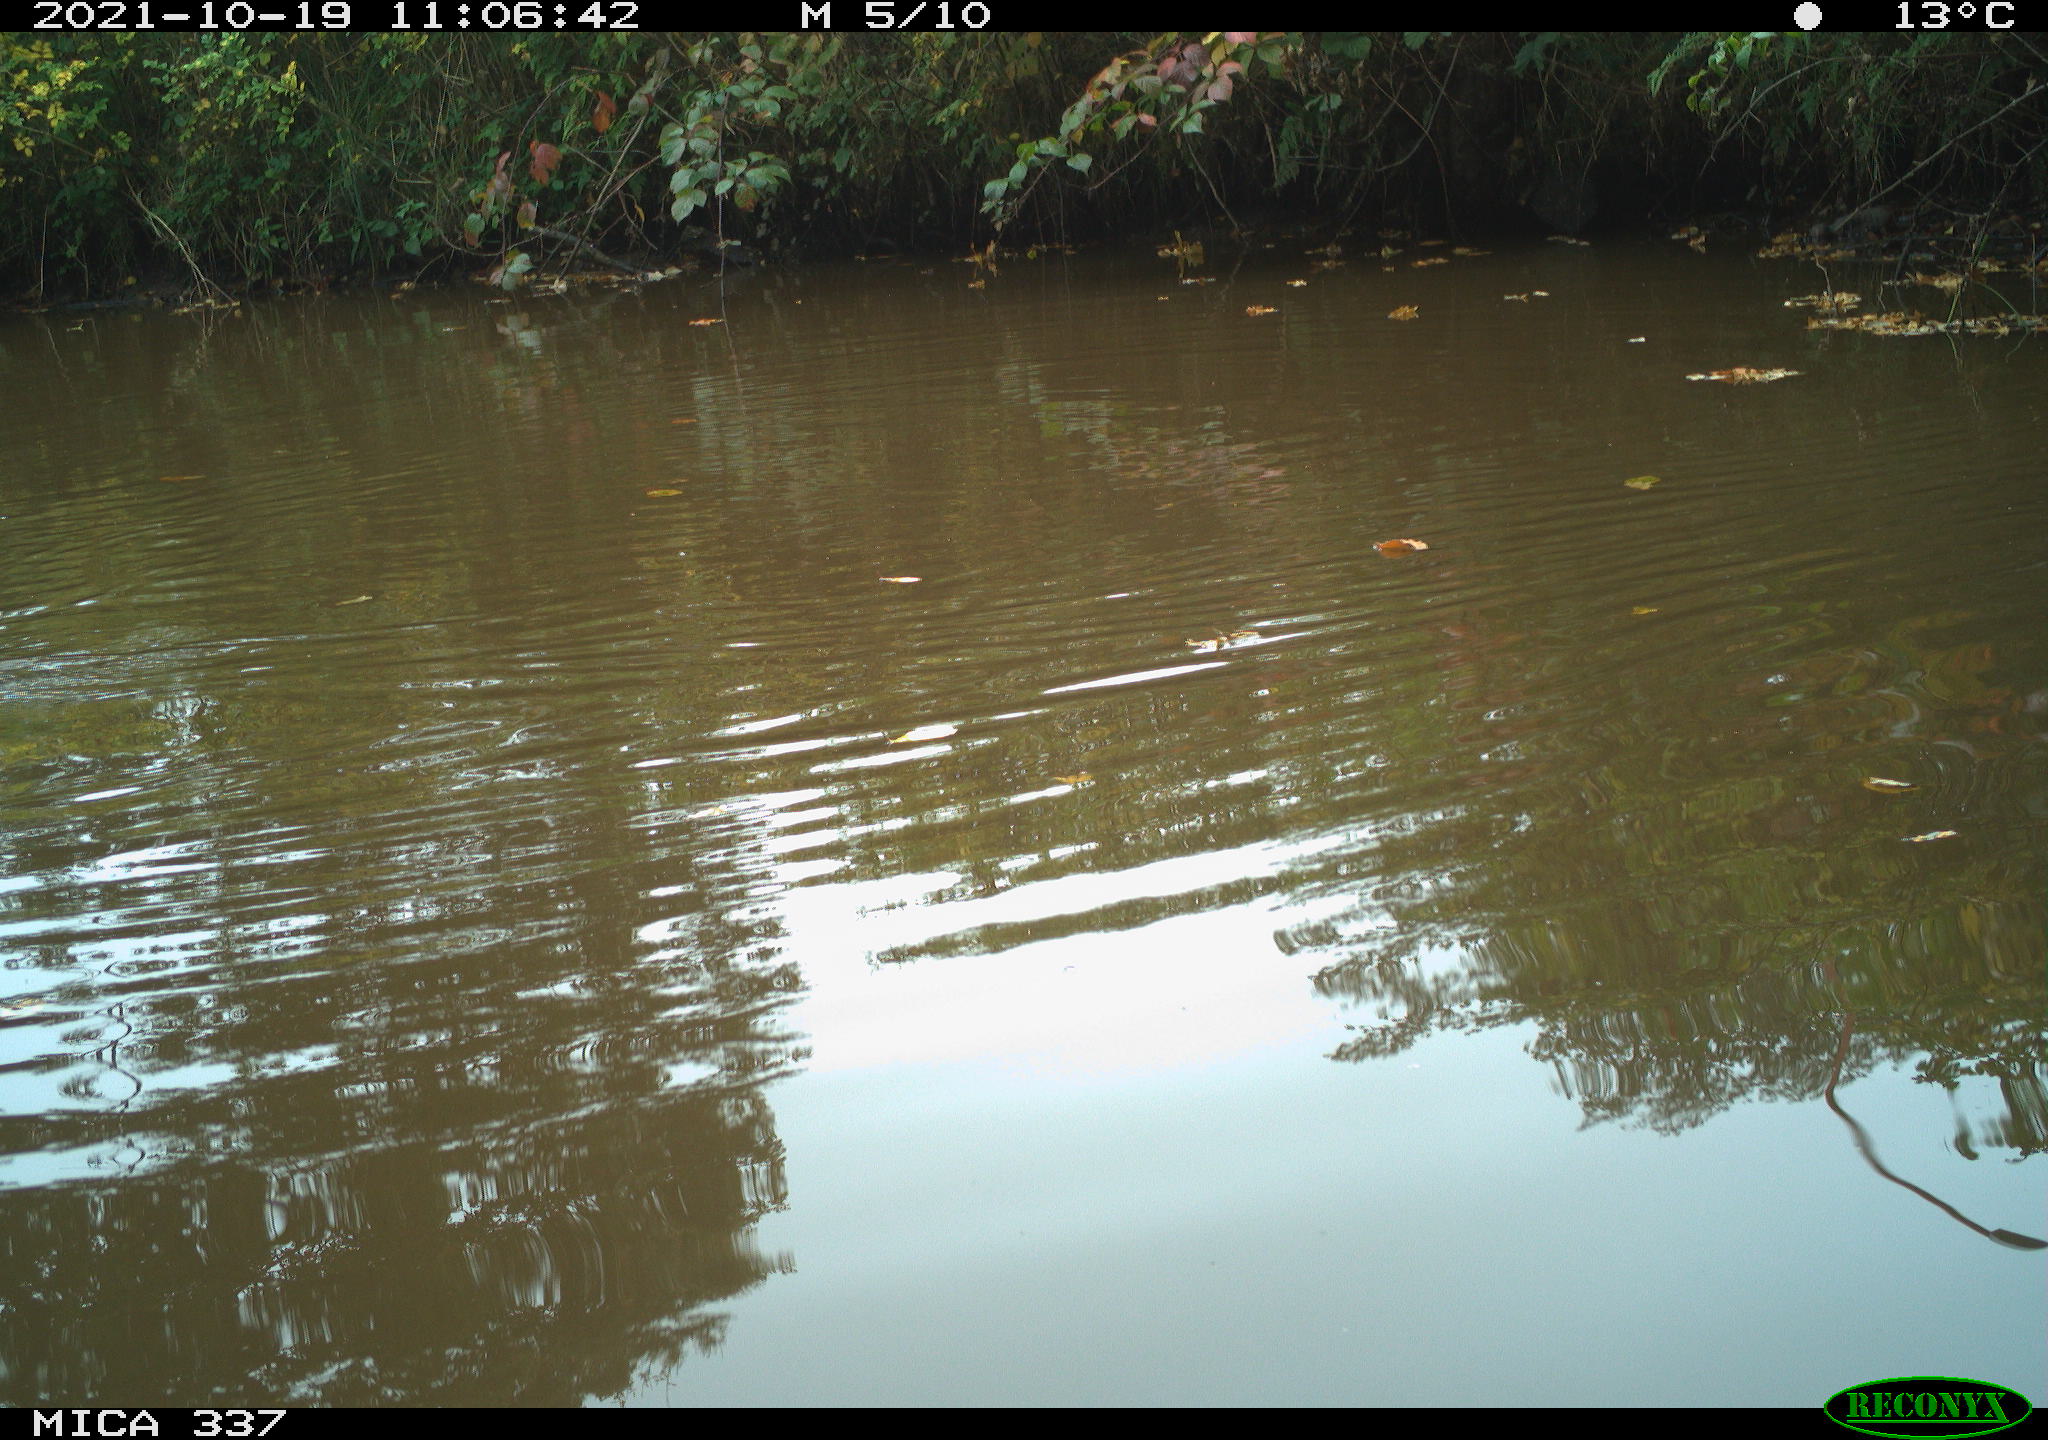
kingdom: Animalia
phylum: Chordata
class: Aves
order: Anseriformes
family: Anatidae
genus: Anas
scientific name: Anas platyrhynchos
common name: Mallard
